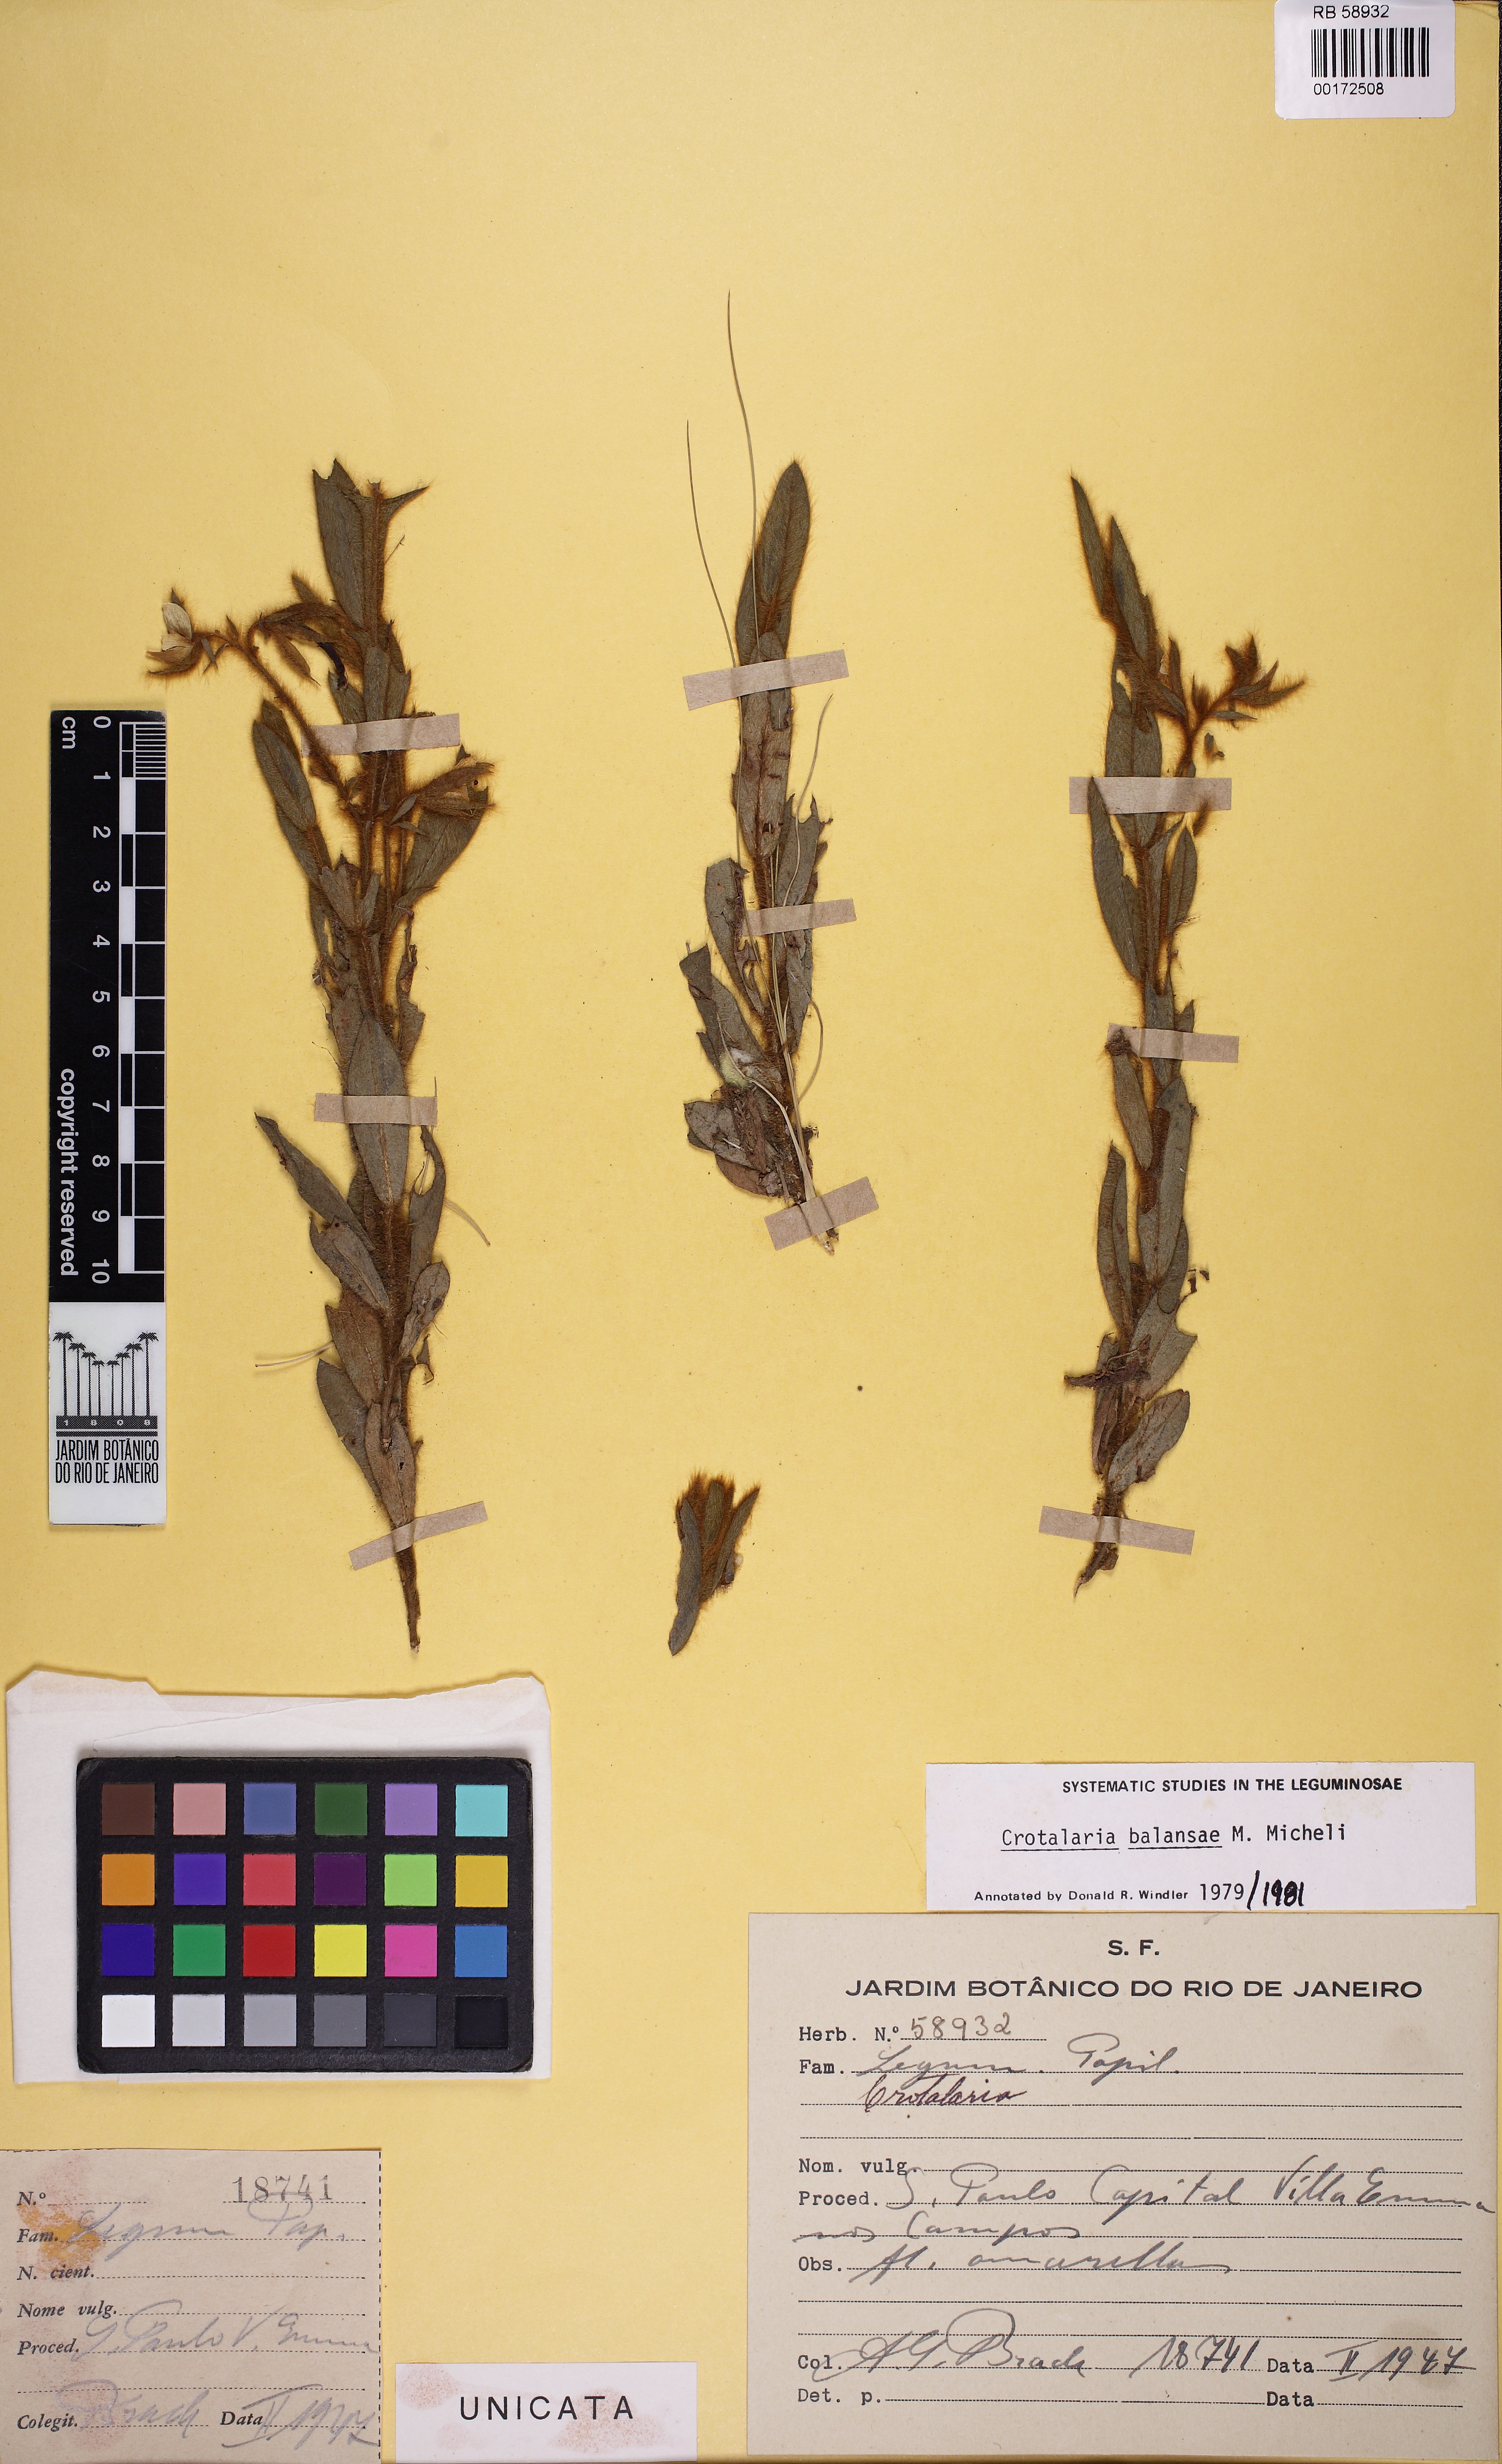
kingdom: Plantae
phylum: Tracheophyta
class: Magnoliopsida
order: Fabales
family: Fabaceae
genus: Crotalaria
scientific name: Crotalaria balansae
